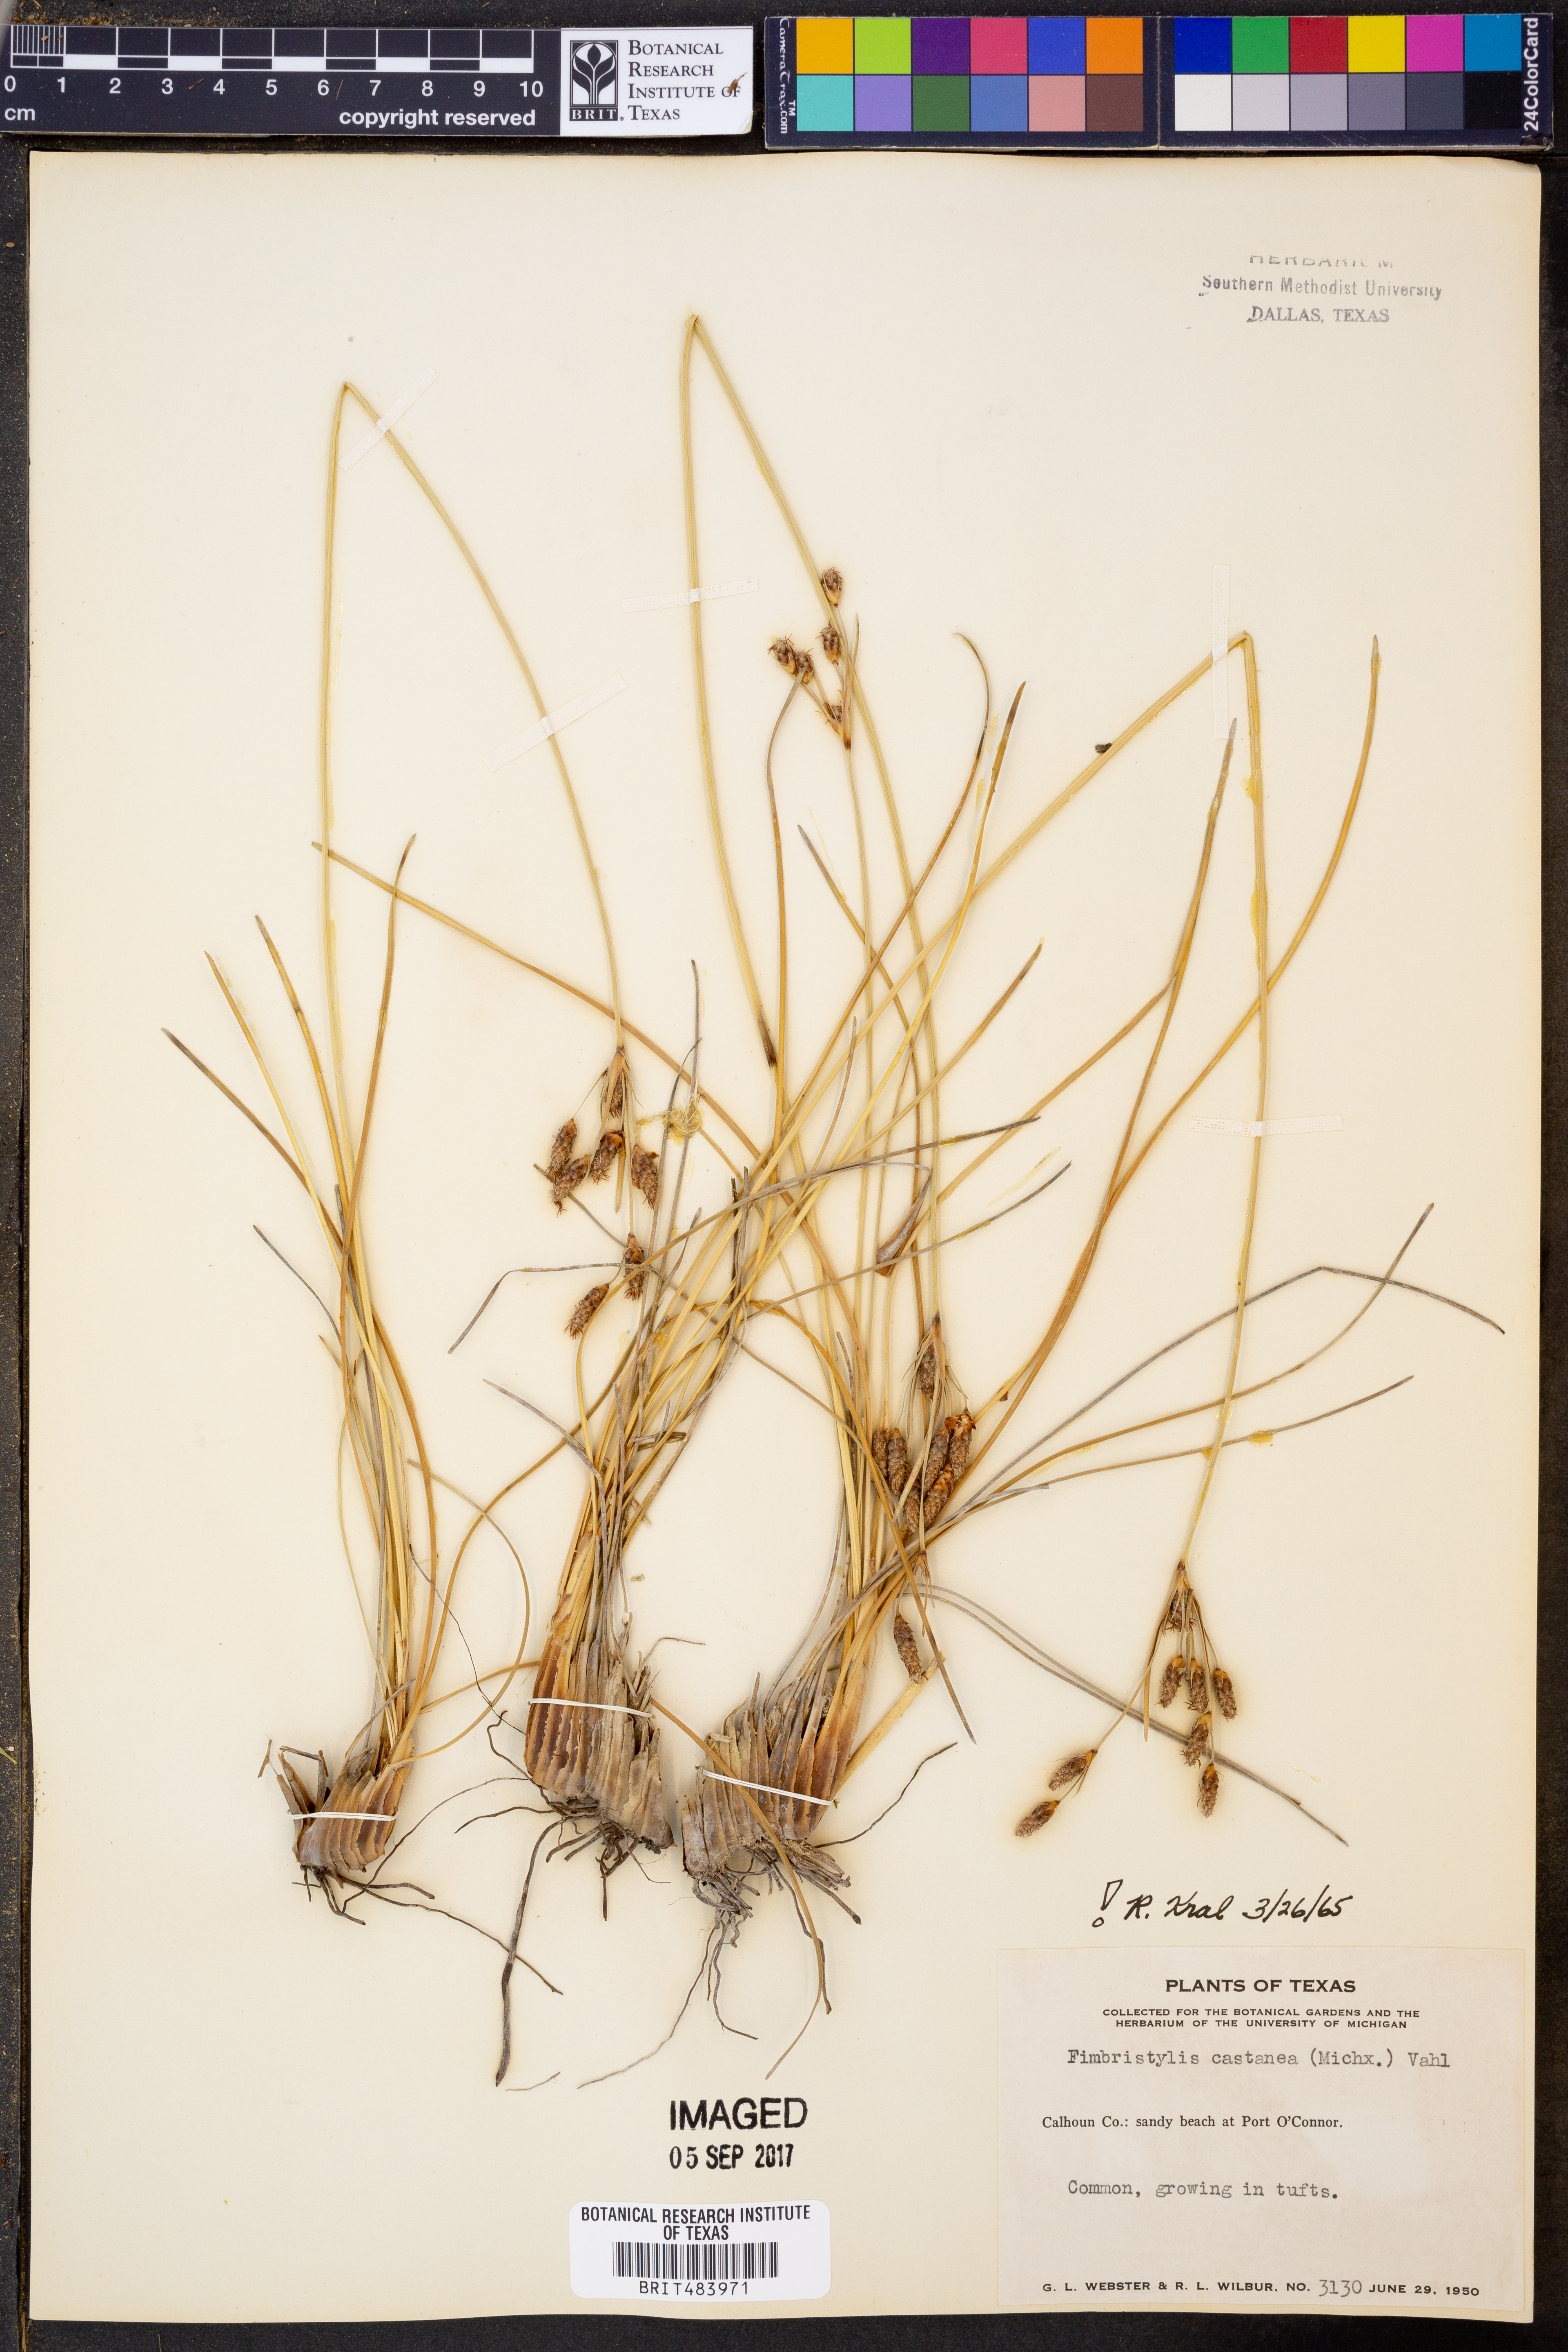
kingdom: Plantae
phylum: Tracheophyta
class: Liliopsida
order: Poales
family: Cyperaceae
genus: Fimbristylis
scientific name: Fimbristylis spadicea
